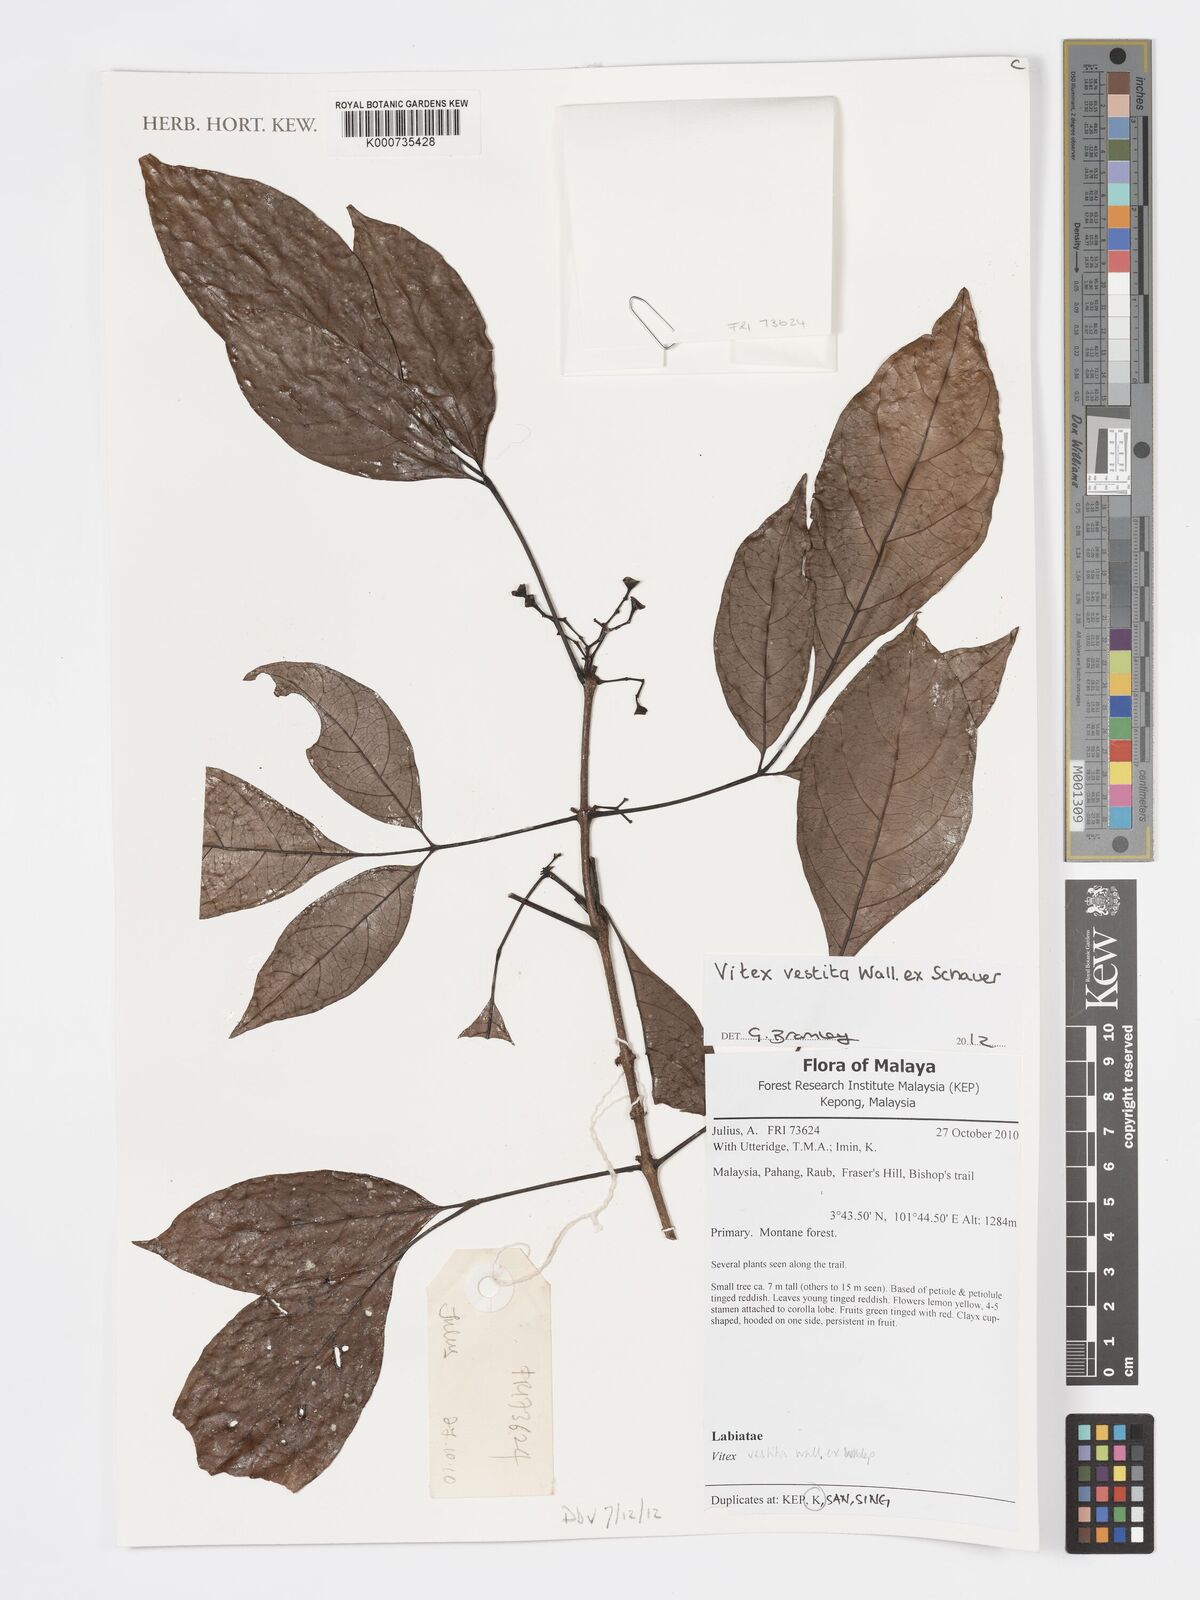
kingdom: Plantae
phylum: Tracheophyta
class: Magnoliopsida
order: Lamiales
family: Lamiaceae
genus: Vitex
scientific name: Vitex
